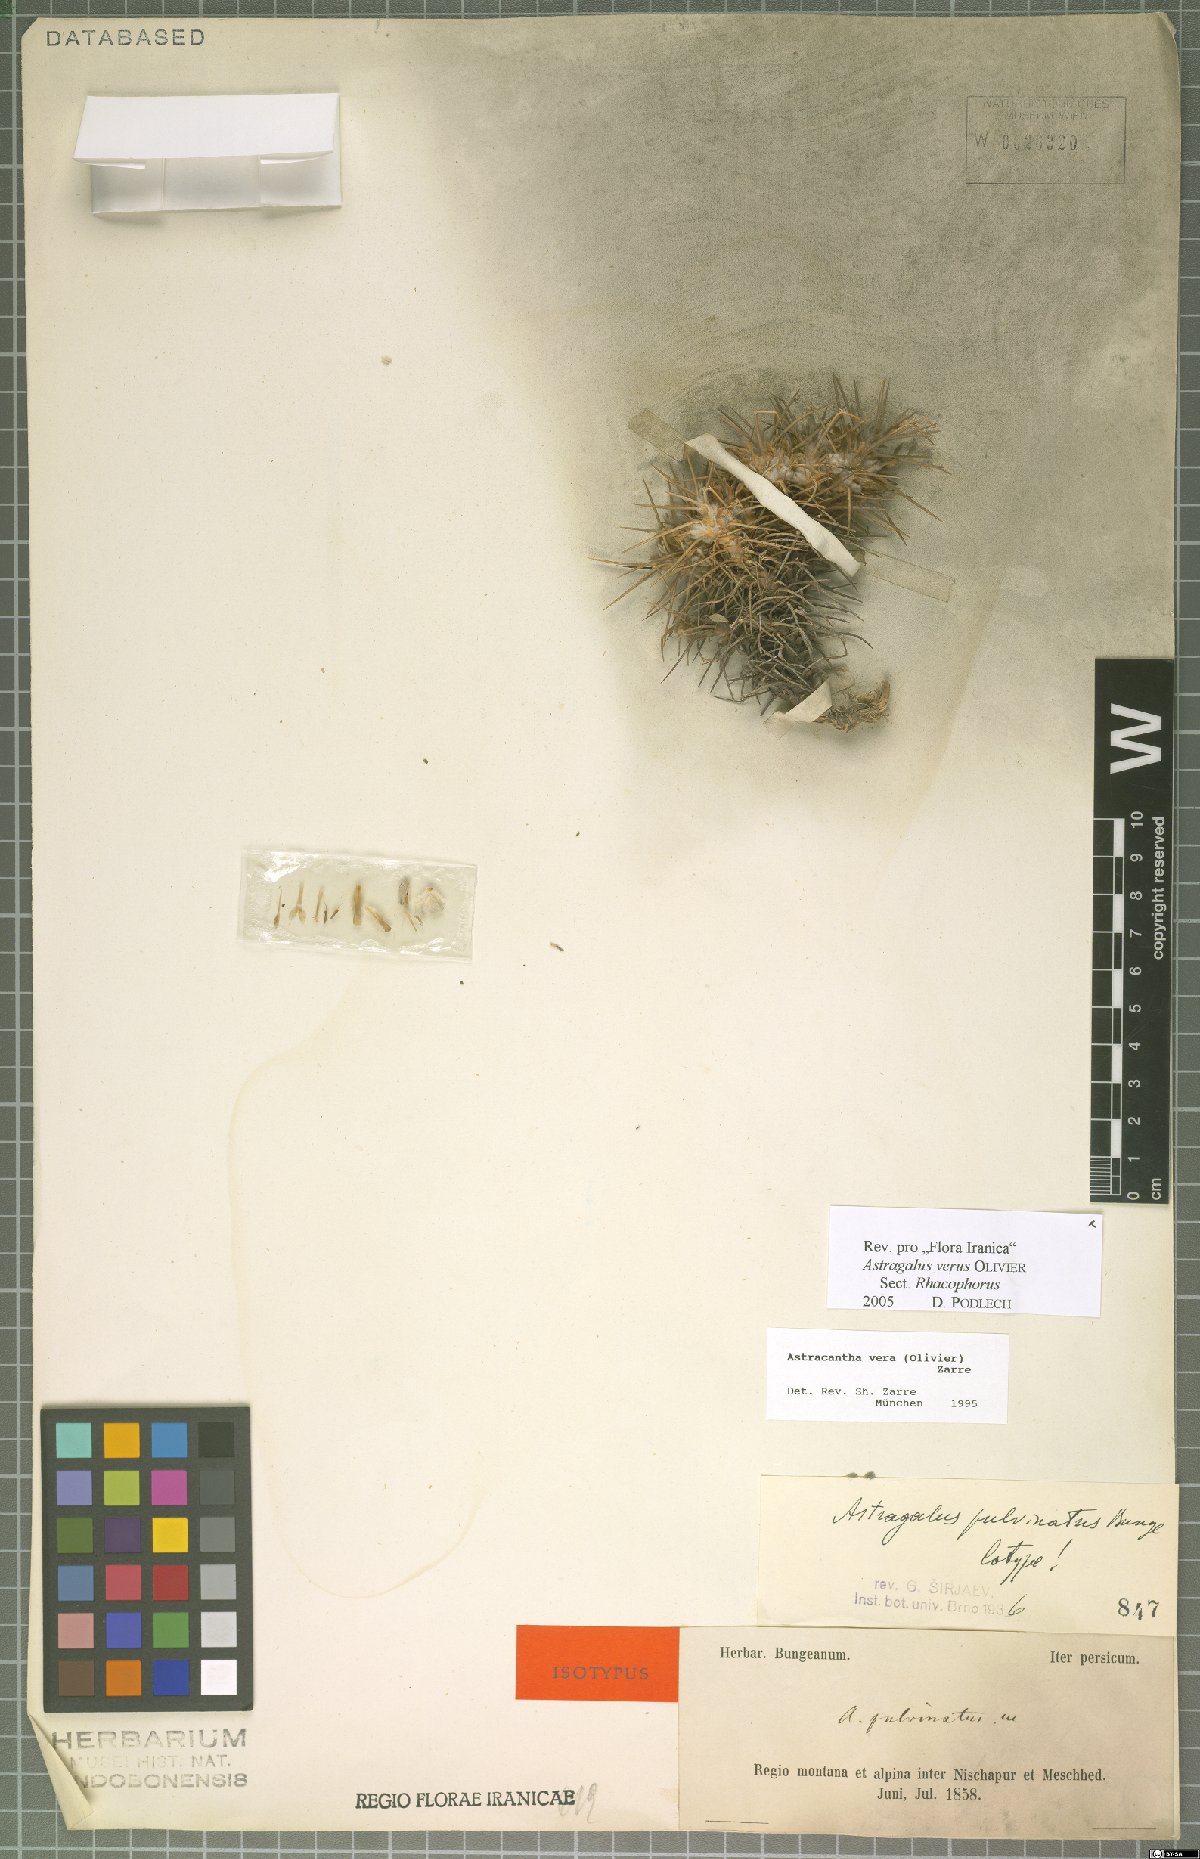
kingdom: Plantae
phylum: Tracheophyta
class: Magnoliopsida
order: Fabales
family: Fabaceae
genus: Astragalus
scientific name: Astragalus verus
